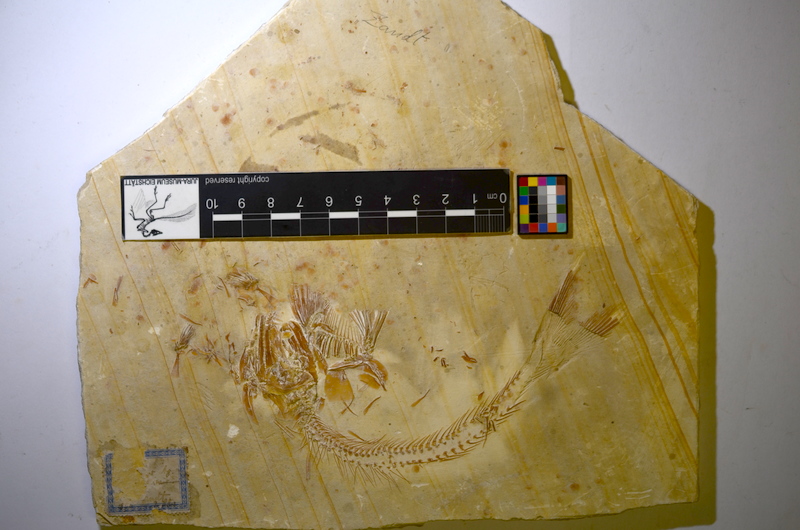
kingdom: Animalia
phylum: Chordata
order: Amiiformes
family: Caturidae
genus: Caturus
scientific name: Caturus
